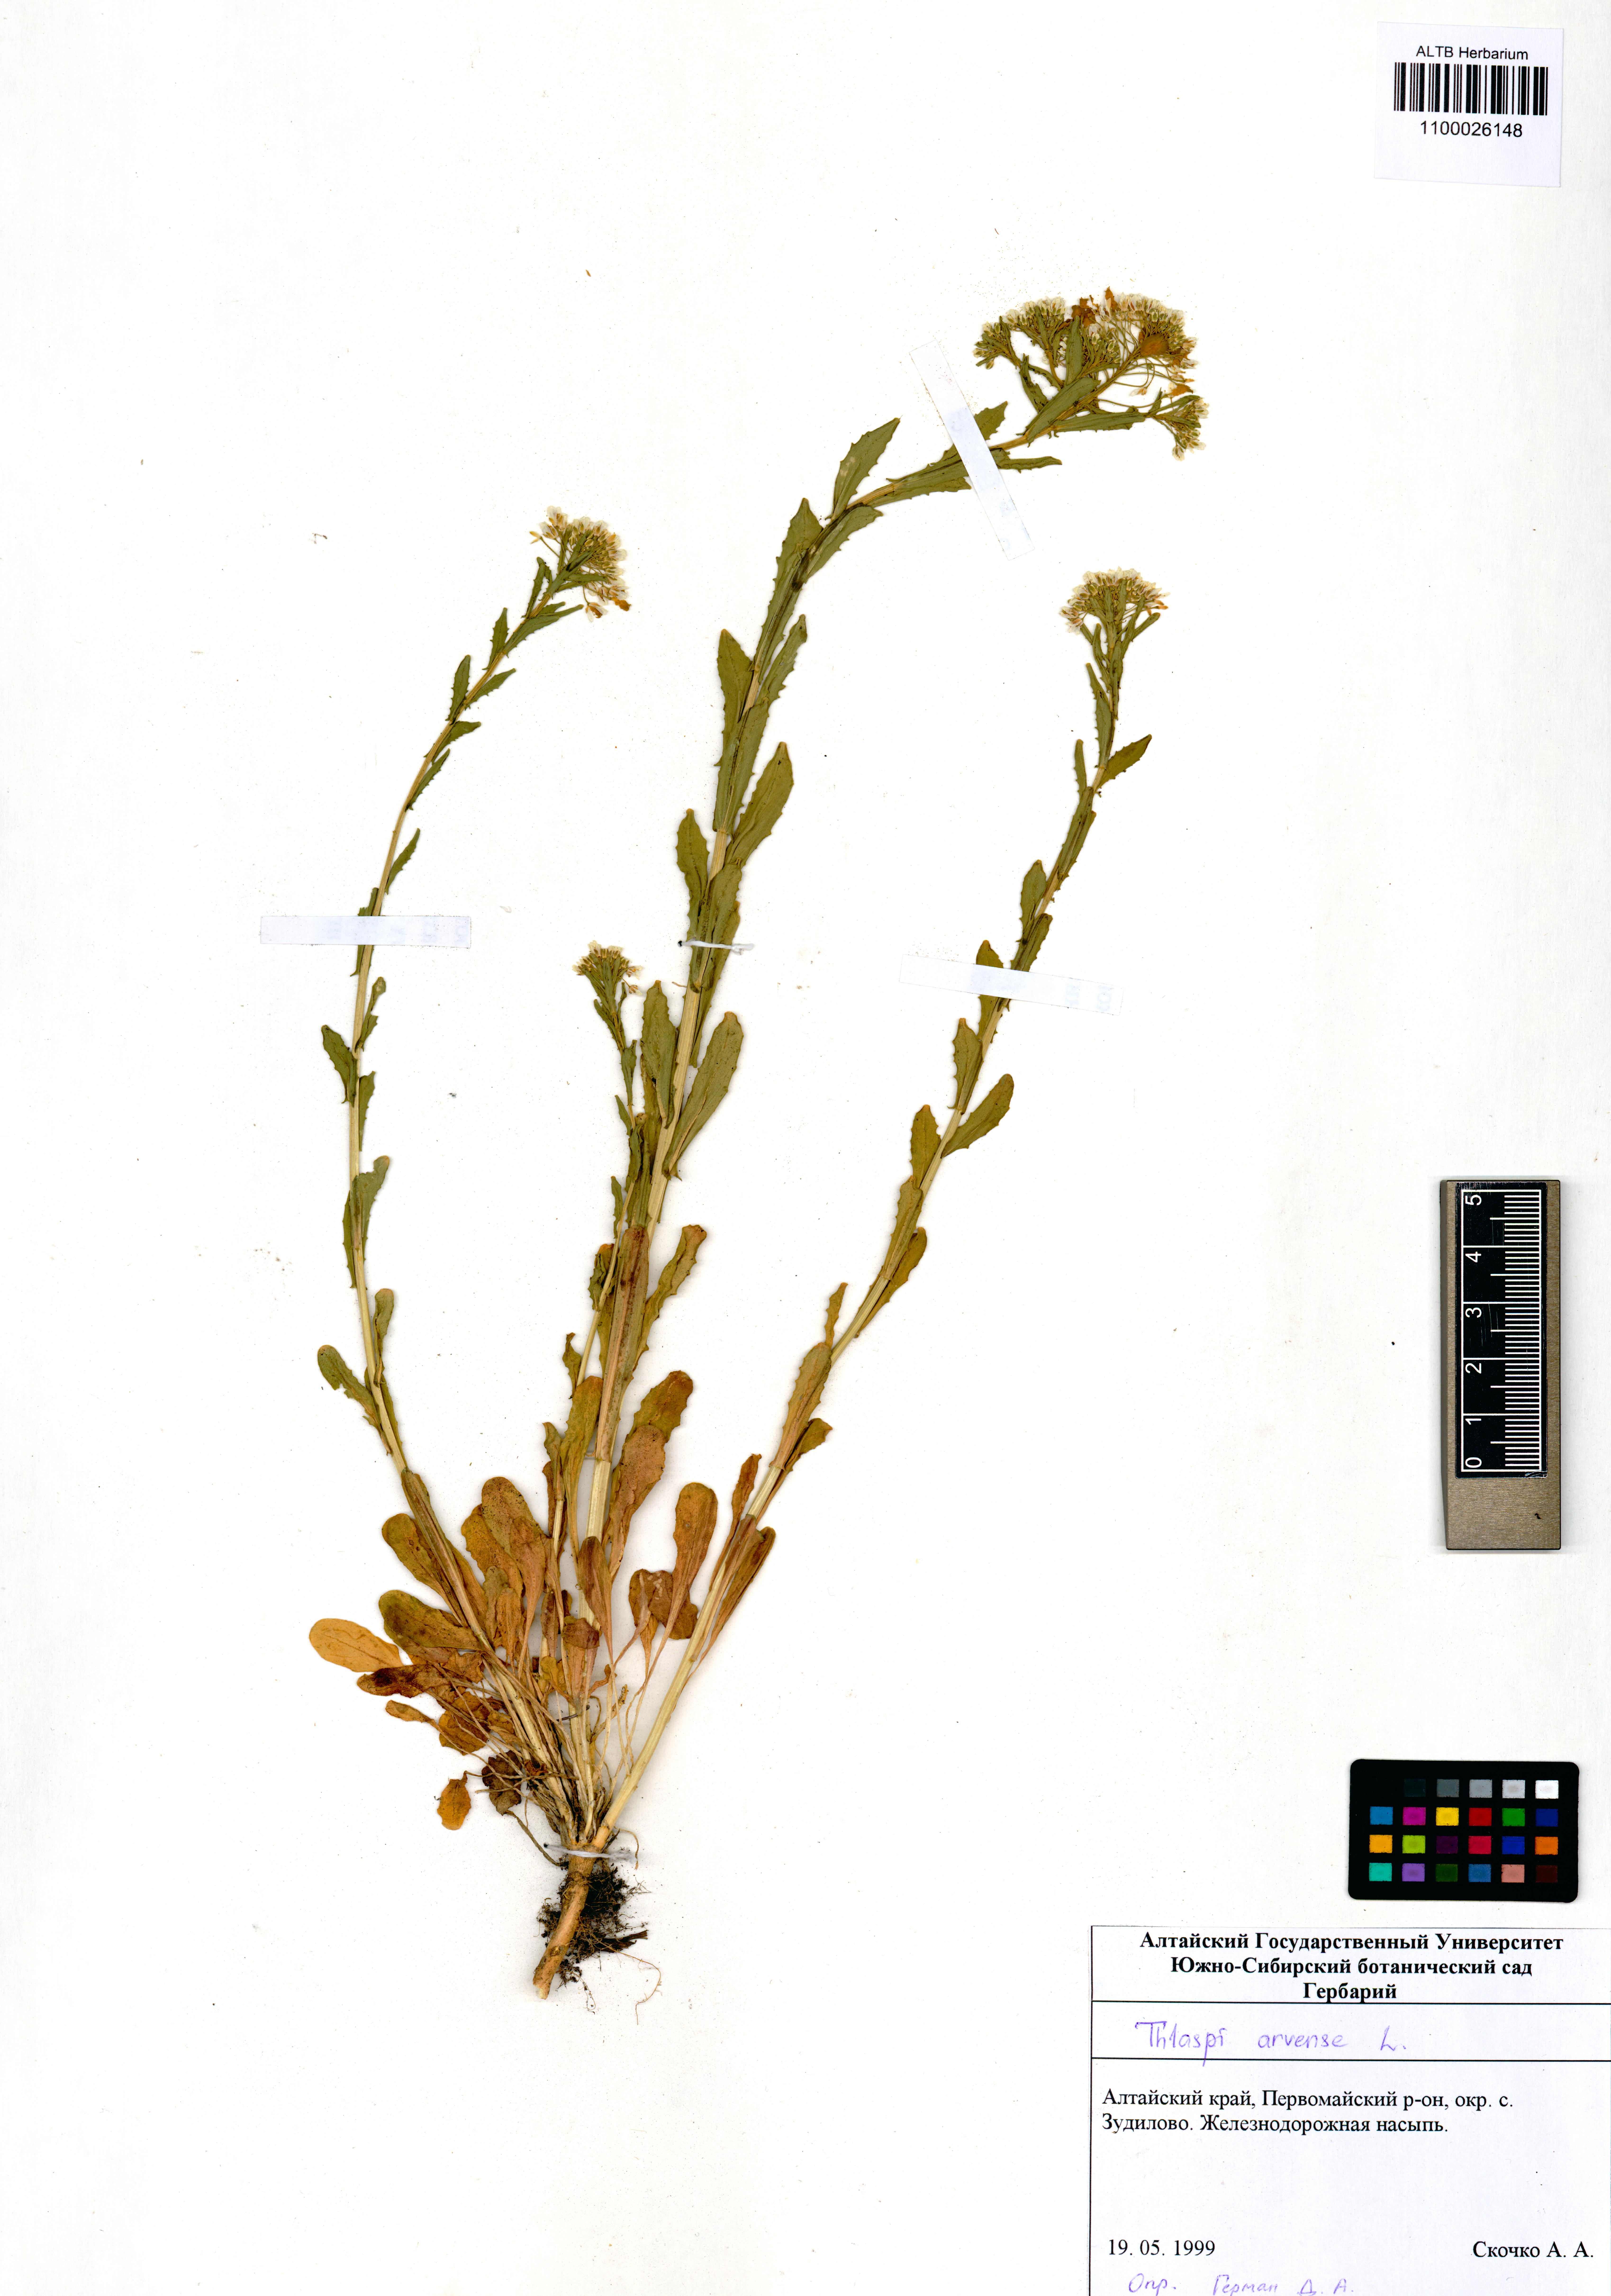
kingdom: Plantae
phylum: Tracheophyta
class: Magnoliopsida
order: Brassicales
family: Brassicaceae
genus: Thlaspi
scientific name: Thlaspi arvense
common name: Field pennycress
